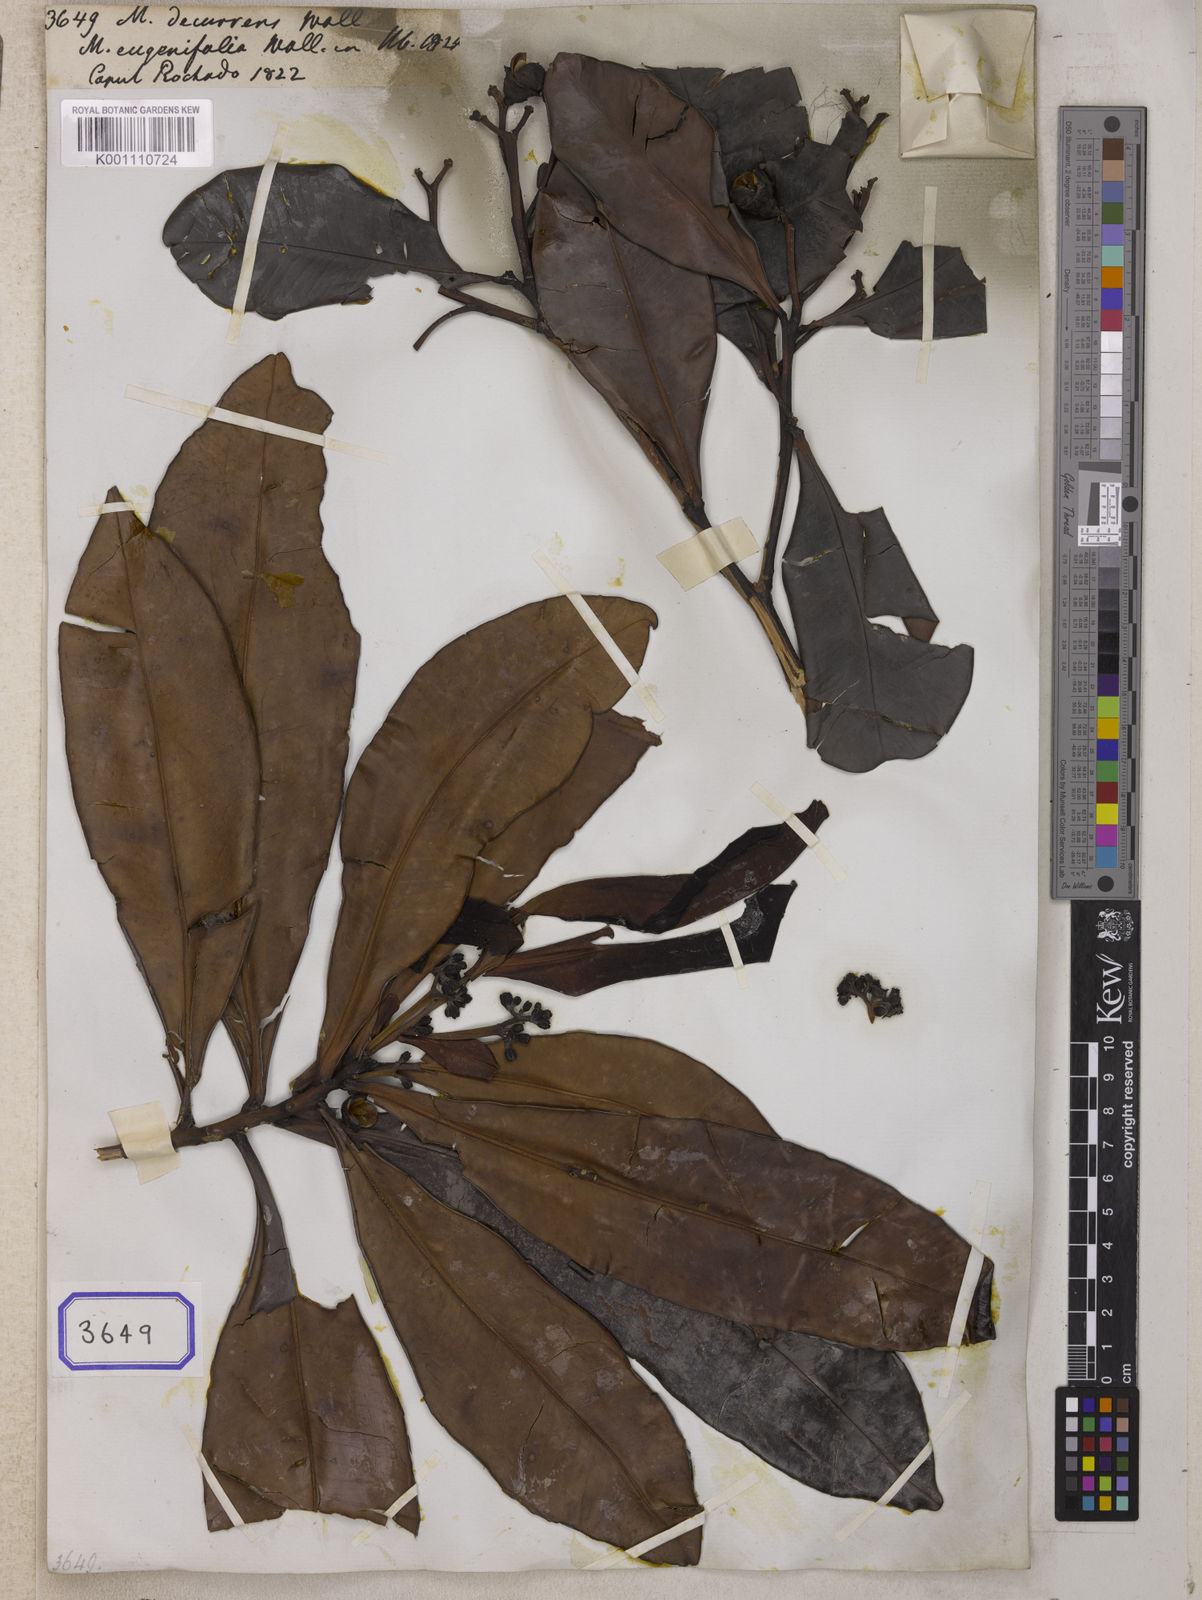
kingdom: Plantae
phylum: Tracheophyta
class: Magnoliopsida
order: Myrtales
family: Myrtaceae
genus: Melaleuca
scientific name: Melaleuca
